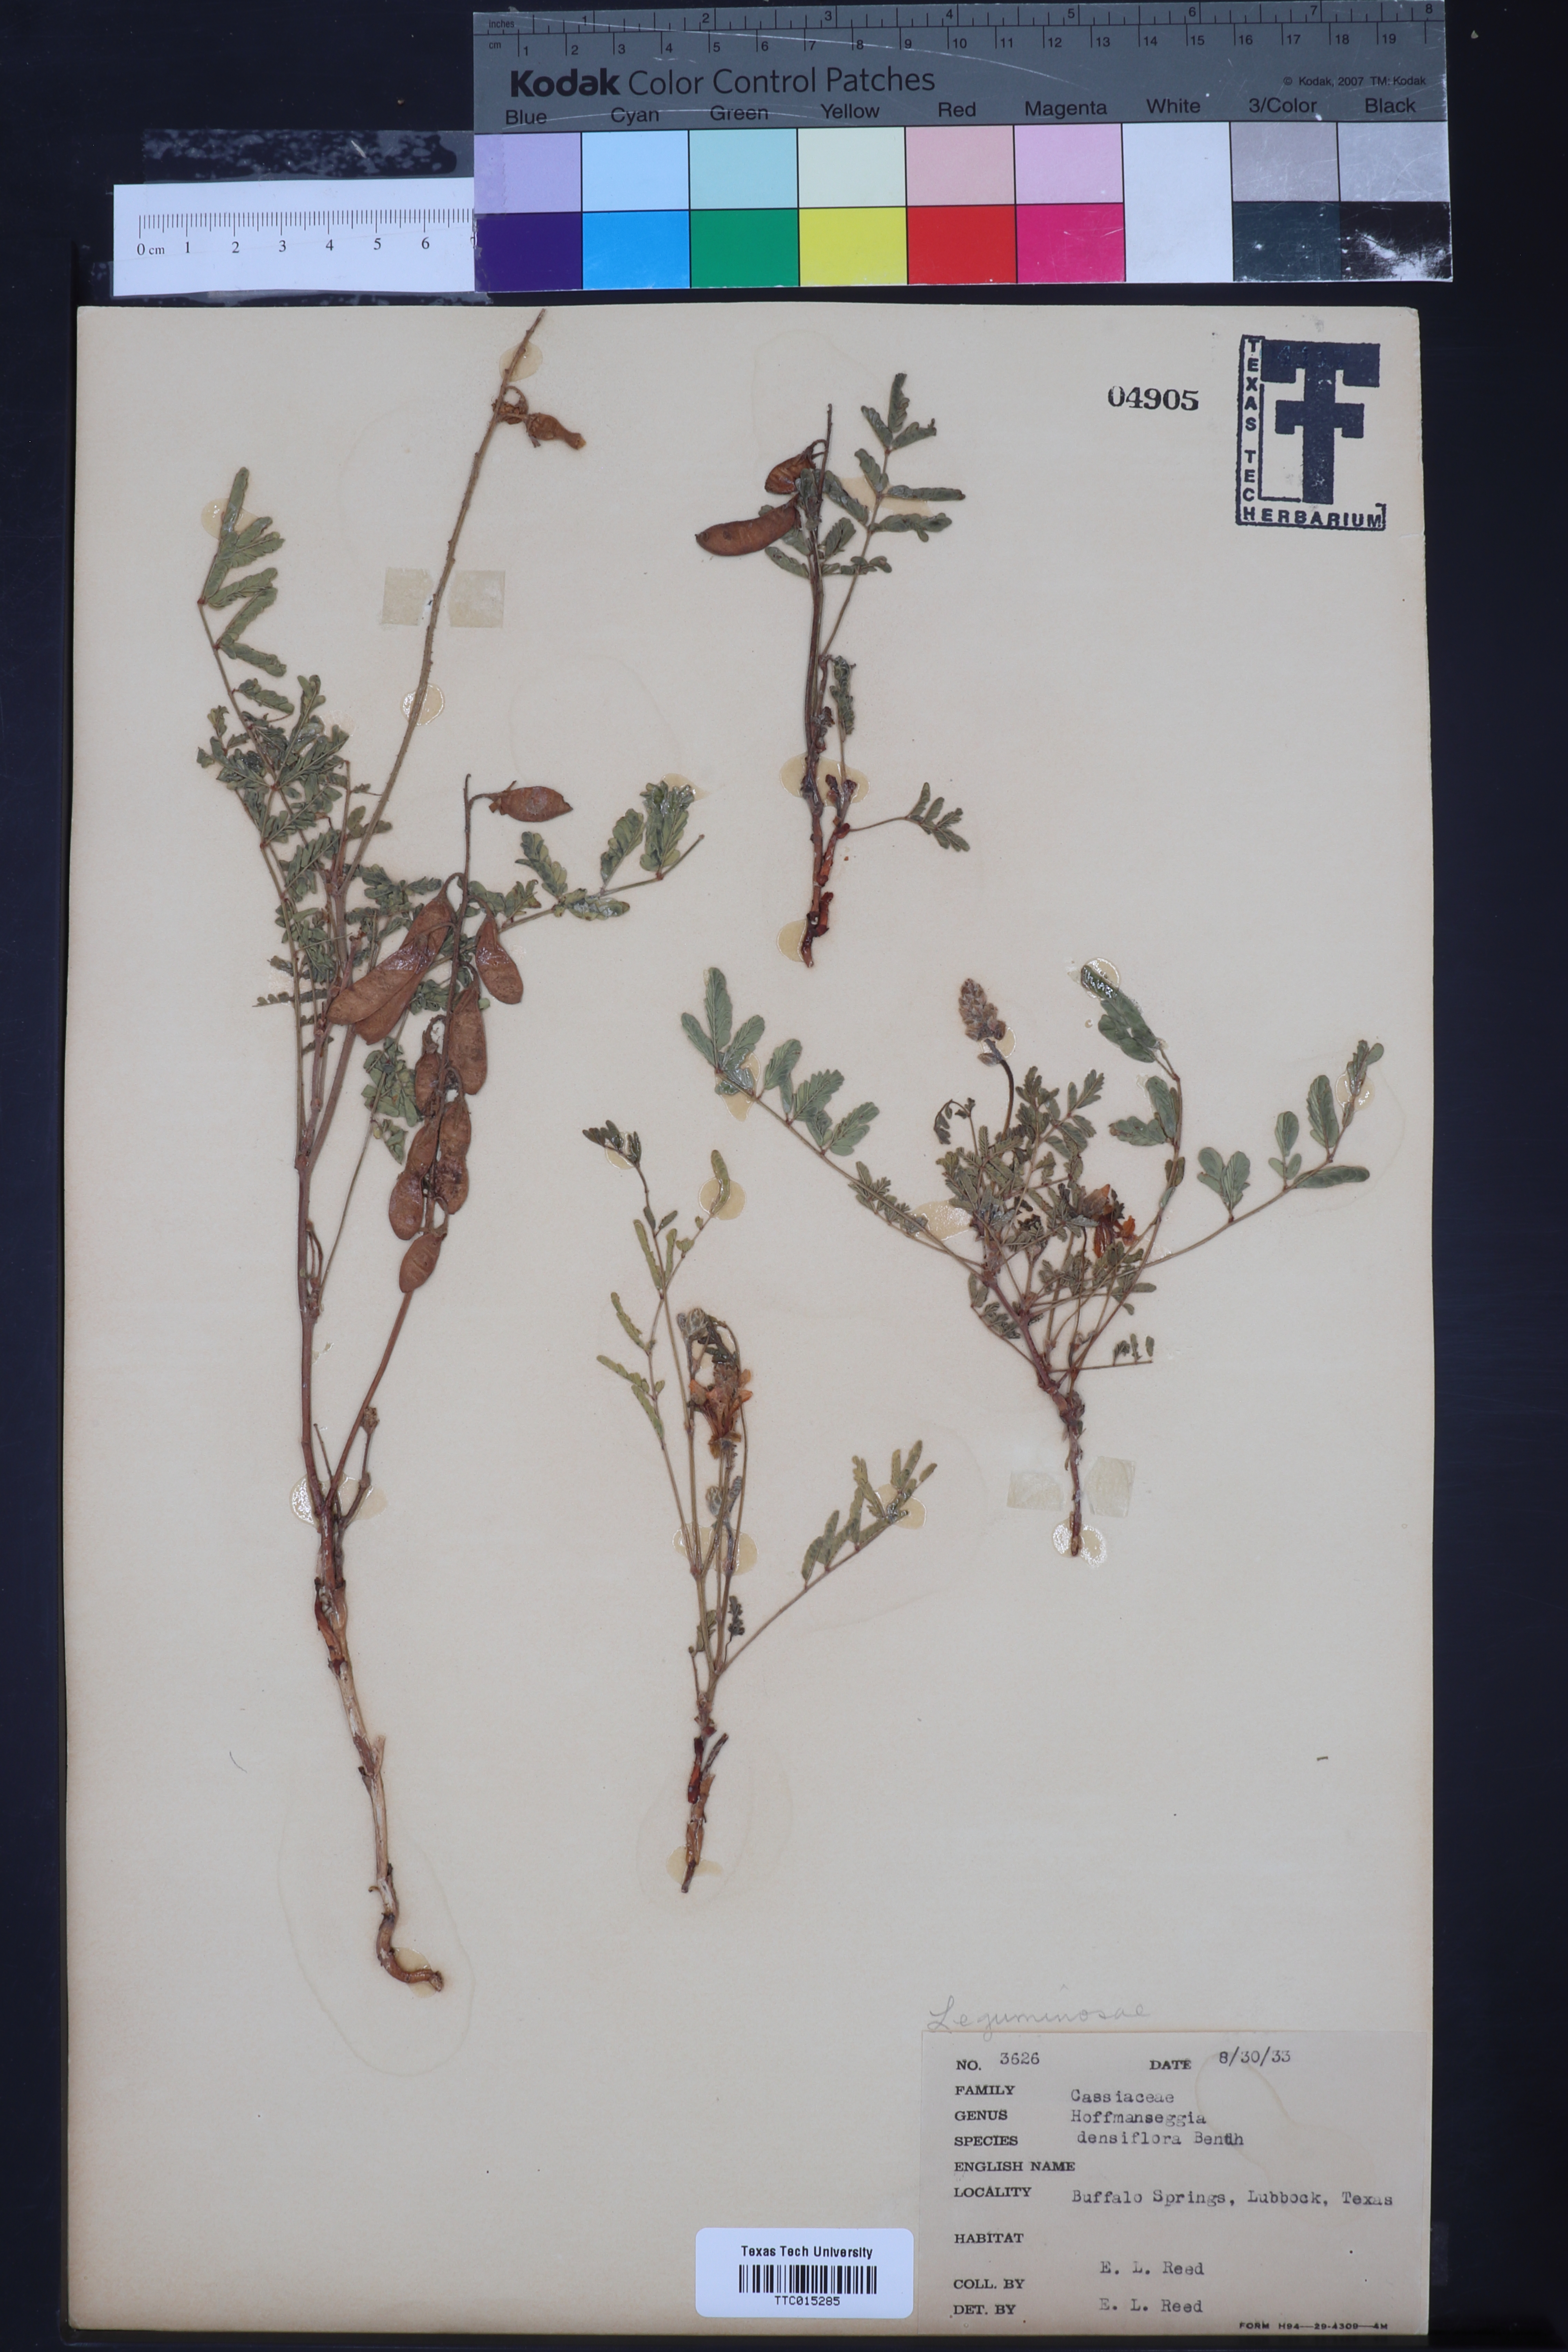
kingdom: Plantae
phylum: Tracheophyta
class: Magnoliopsida
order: Fabales
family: Fabaceae
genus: Hoffmannseggia
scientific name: Hoffmannseggia glauca
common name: Pignut
